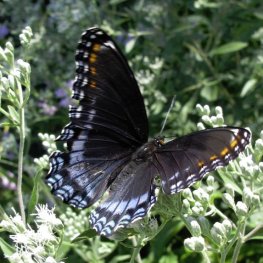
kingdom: Animalia
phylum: Arthropoda
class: Insecta
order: Lepidoptera
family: Nymphalidae
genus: Limenitis
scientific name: Limenitis astyanax
